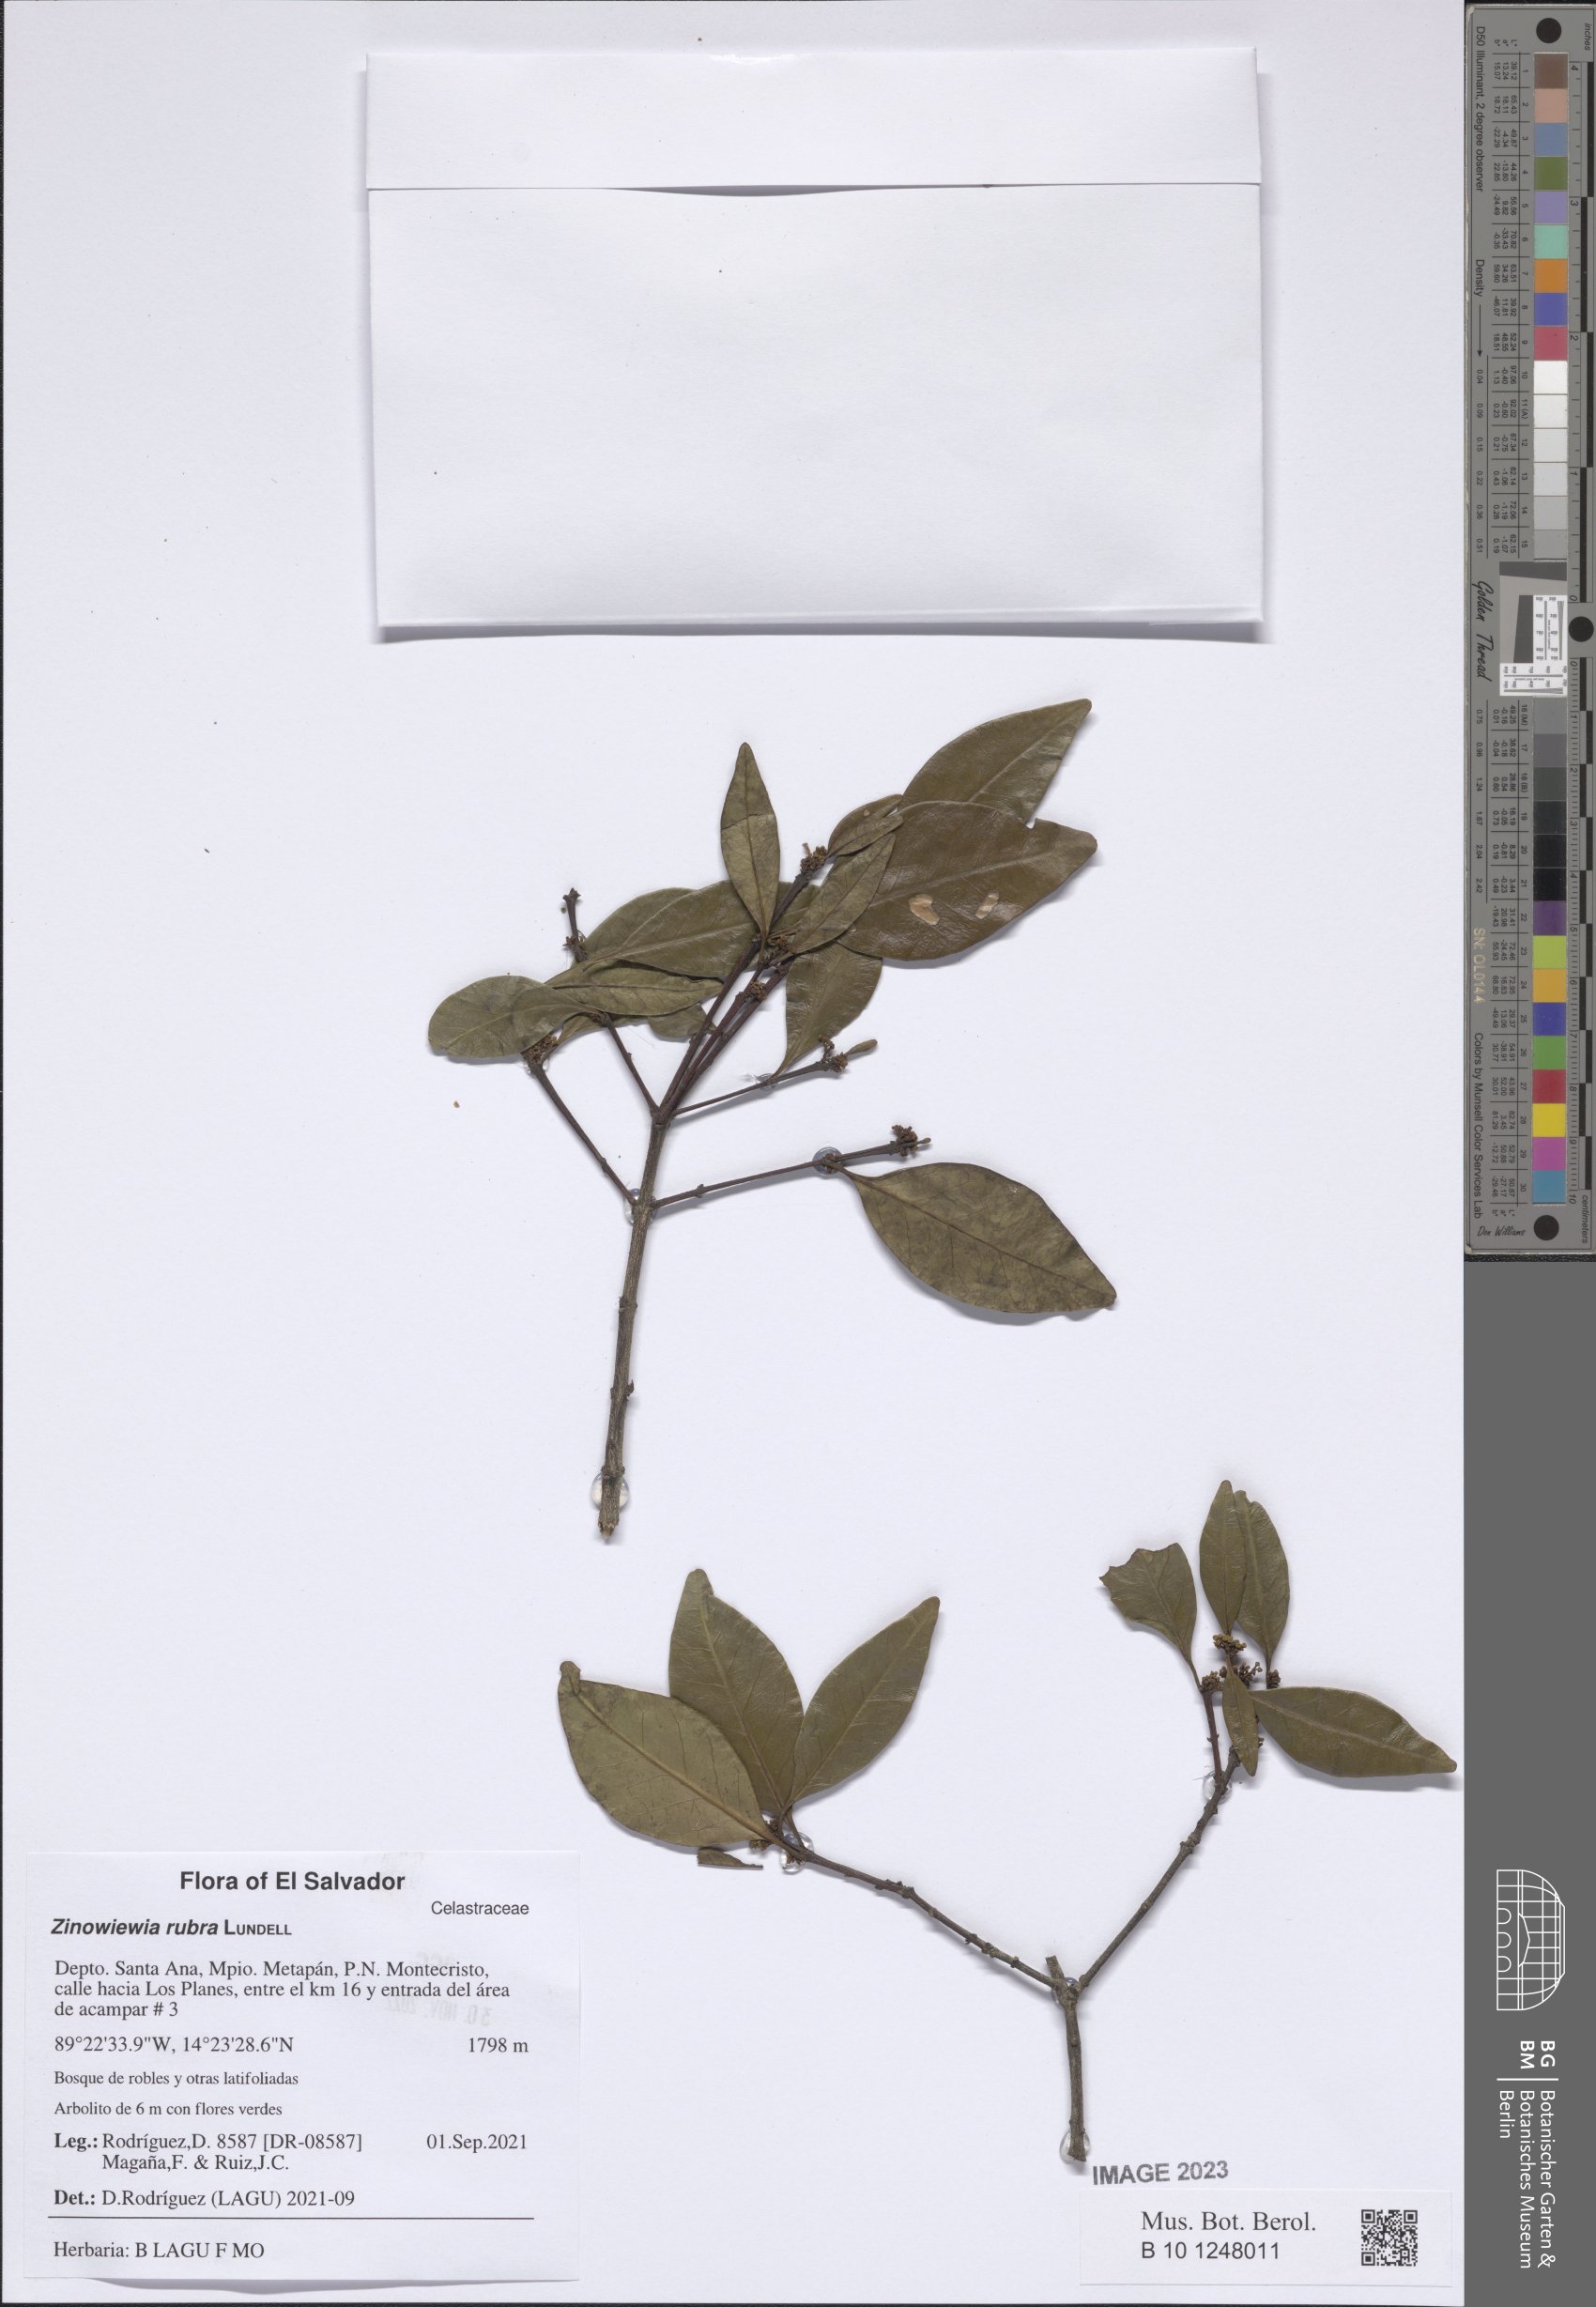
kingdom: Plantae
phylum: Tracheophyta
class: Magnoliopsida
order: Celastrales
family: Celastraceae
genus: Zinowiewia
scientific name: Zinowiewia rubra
